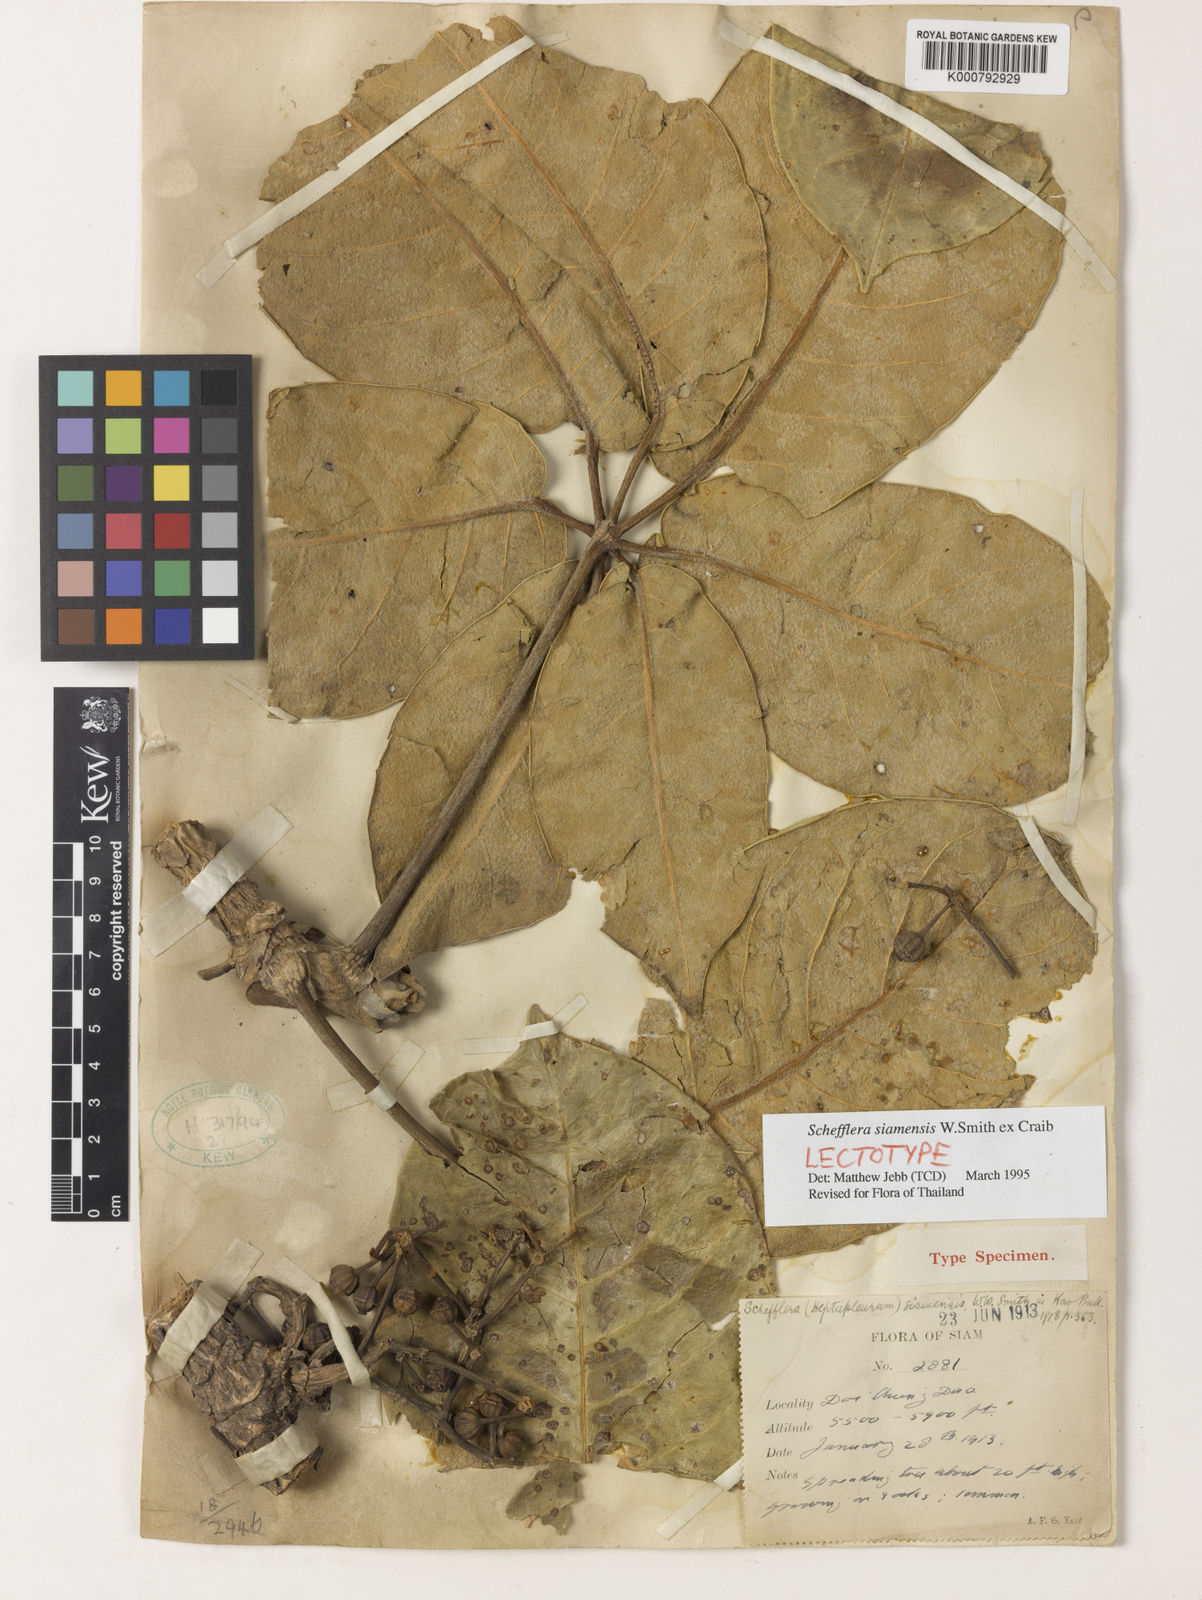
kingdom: Plantae
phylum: Tracheophyta
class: Magnoliopsida
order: Apiales
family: Araliaceae
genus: Heptapleurum
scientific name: Heptapleurum siamense
